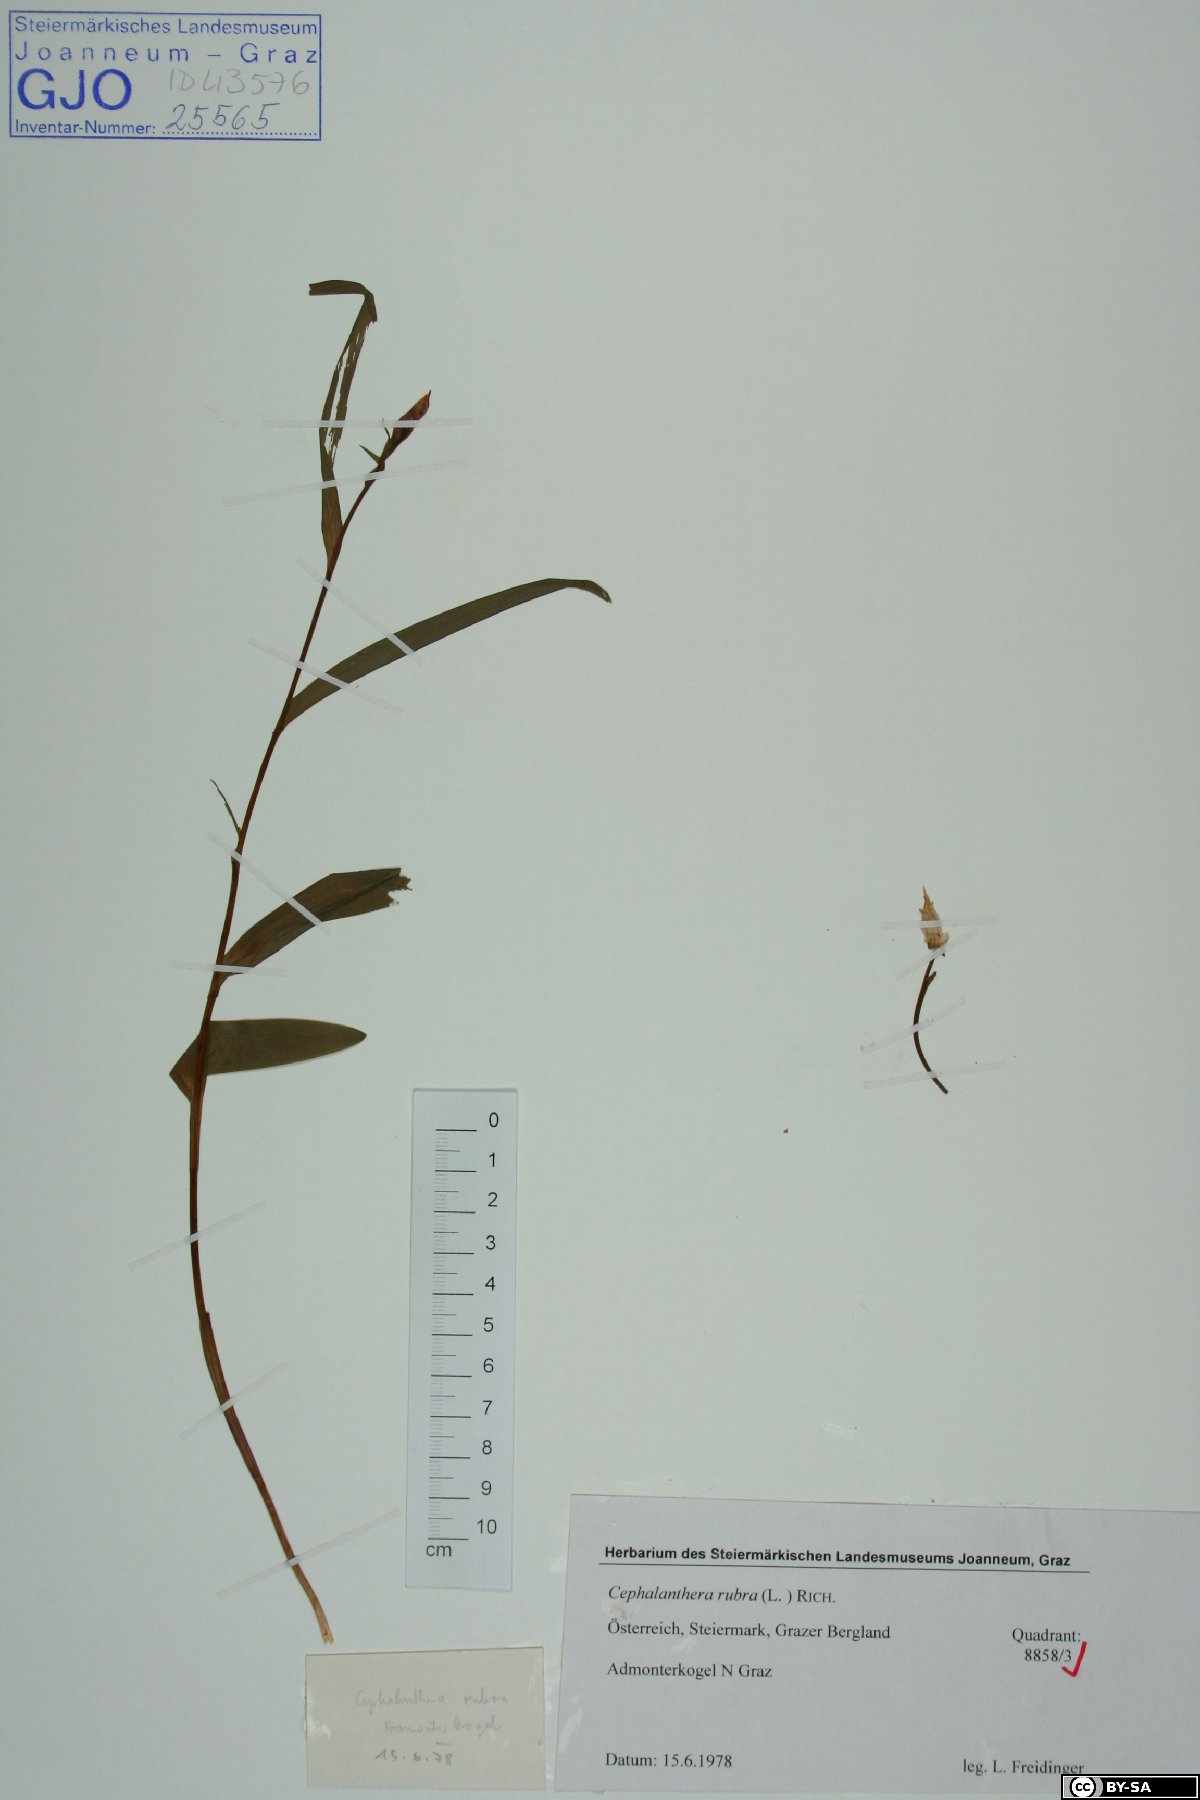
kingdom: Plantae
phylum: Tracheophyta
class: Liliopsida
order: Asparagales
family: Orchidaceae
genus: Cephalanthera
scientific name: Cephalanthera rubra
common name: Red helleborine
